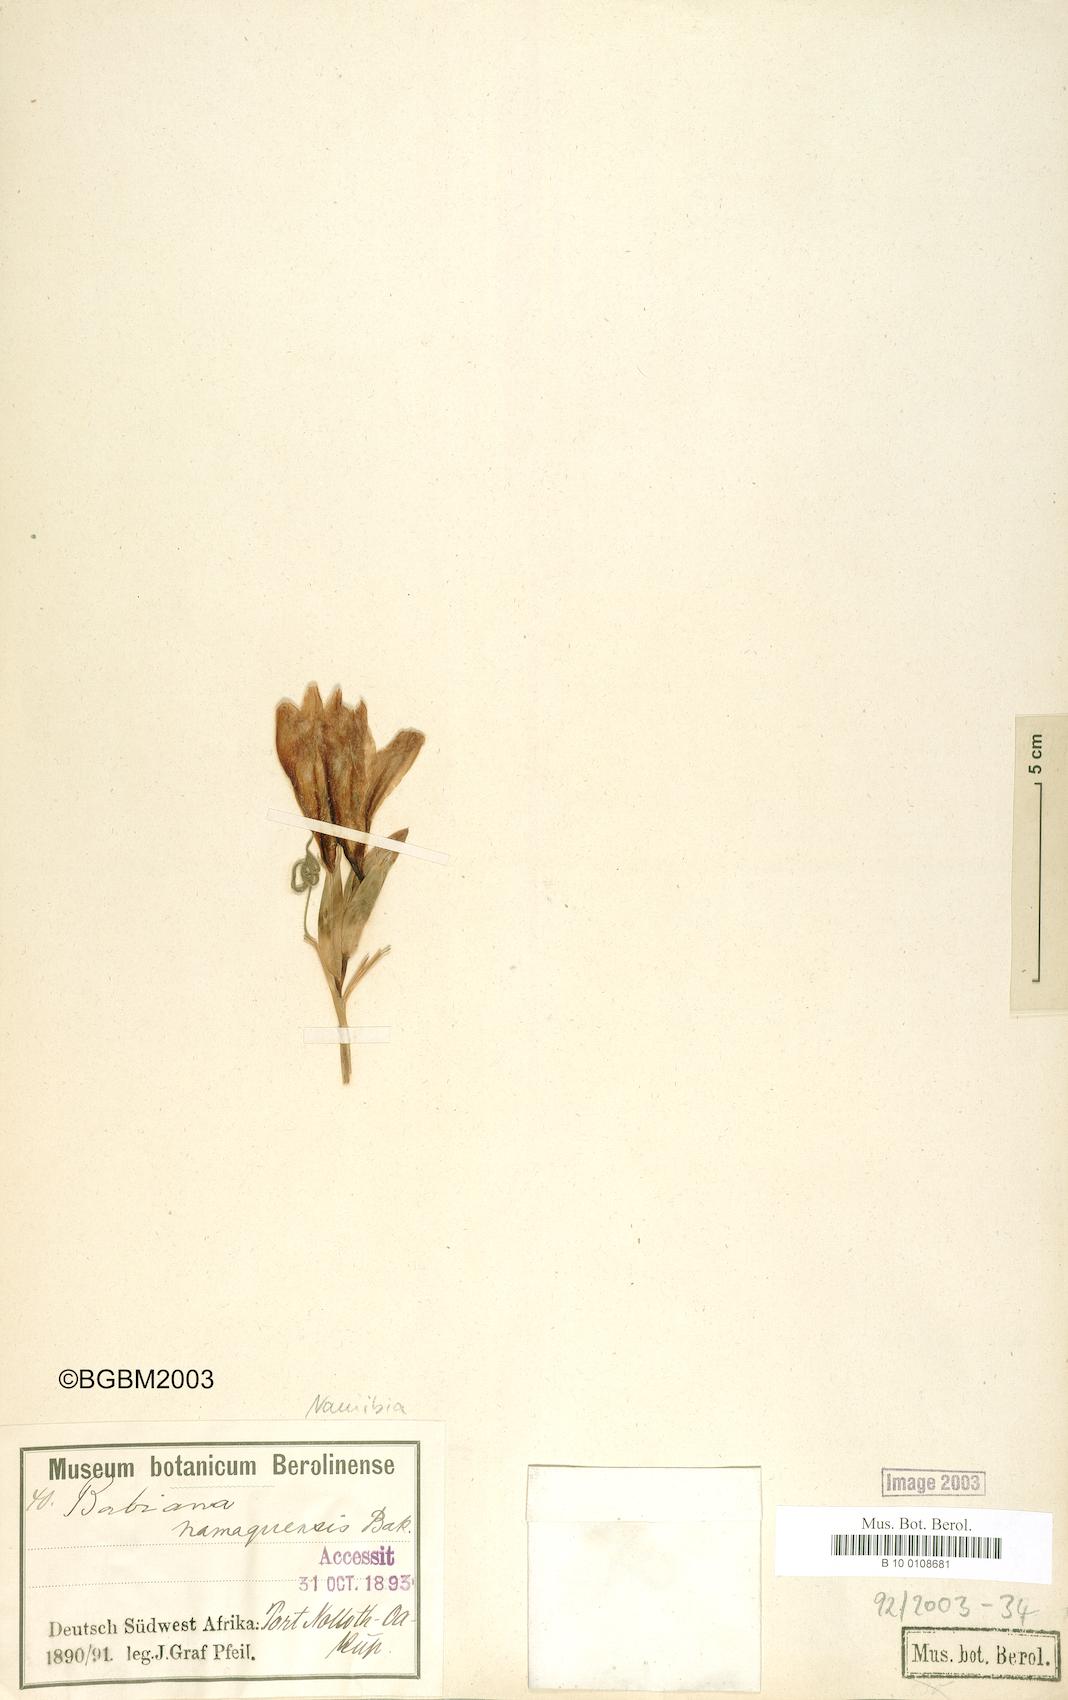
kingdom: Plantae
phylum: Tracheophyta
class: Liliopsida
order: Asparagales
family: Iridaceae
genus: Babiana
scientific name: Babiana namaquensis
